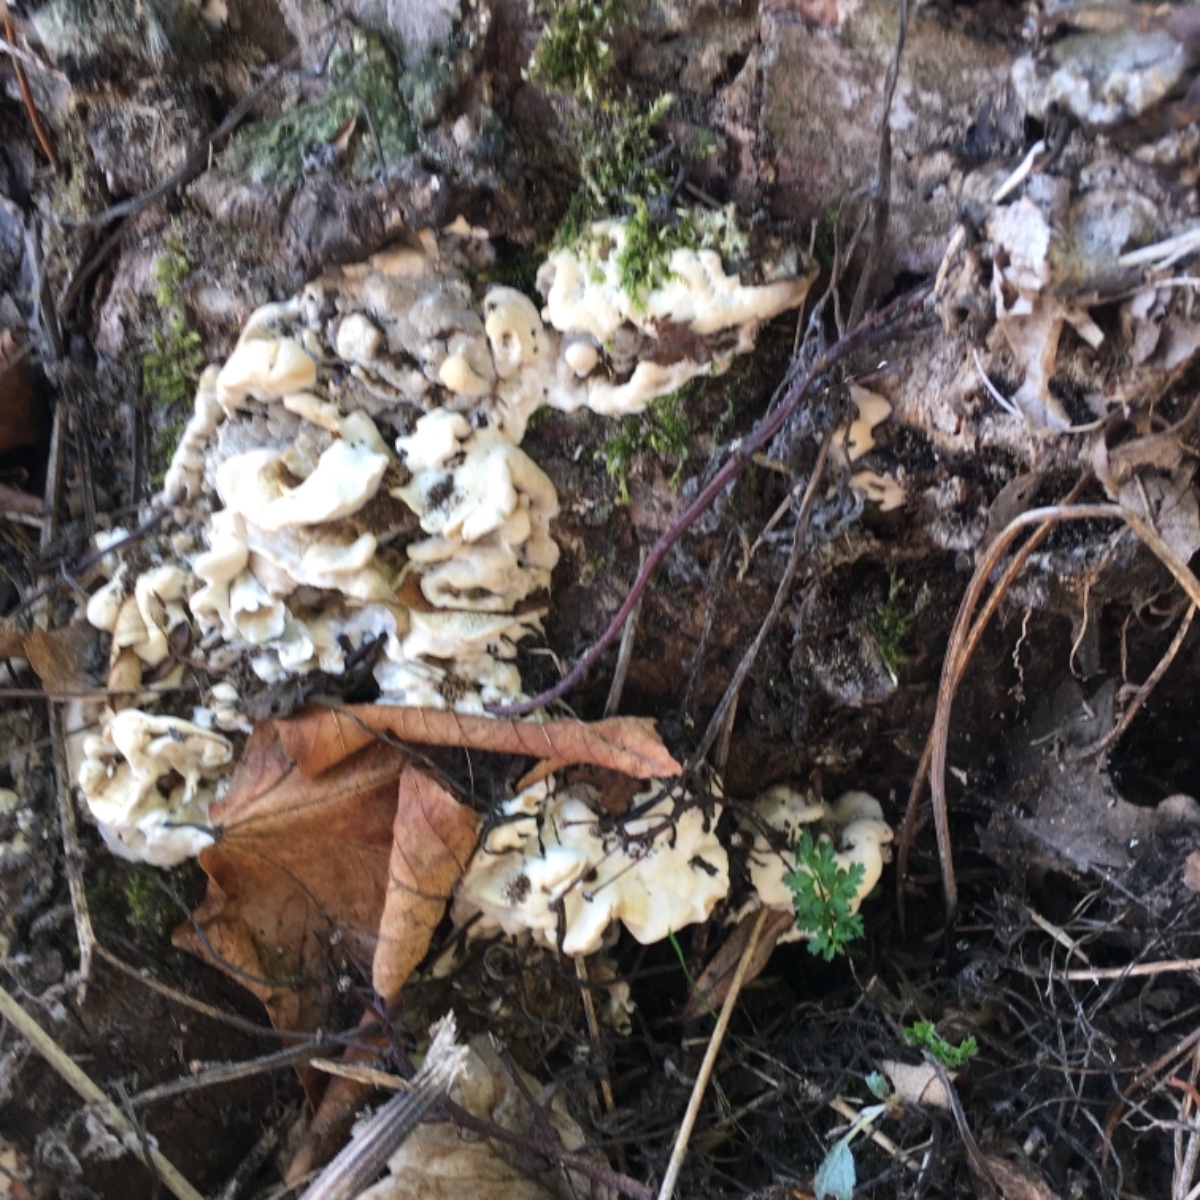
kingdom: Fungi
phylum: Basidiomycota
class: Agaricomycetes
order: Polyporales
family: Phanerochaetaceae
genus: Bjerkandera
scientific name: Bjerkandera
